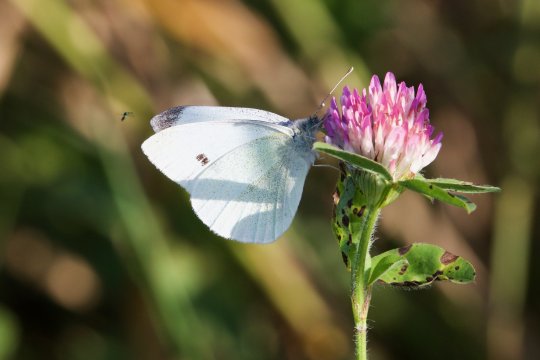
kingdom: Animalia
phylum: Arthropoda
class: Insecta
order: Lepidoptera
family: Pieridae
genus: Pieris
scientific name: Pieris rapae
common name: Cabbage White
